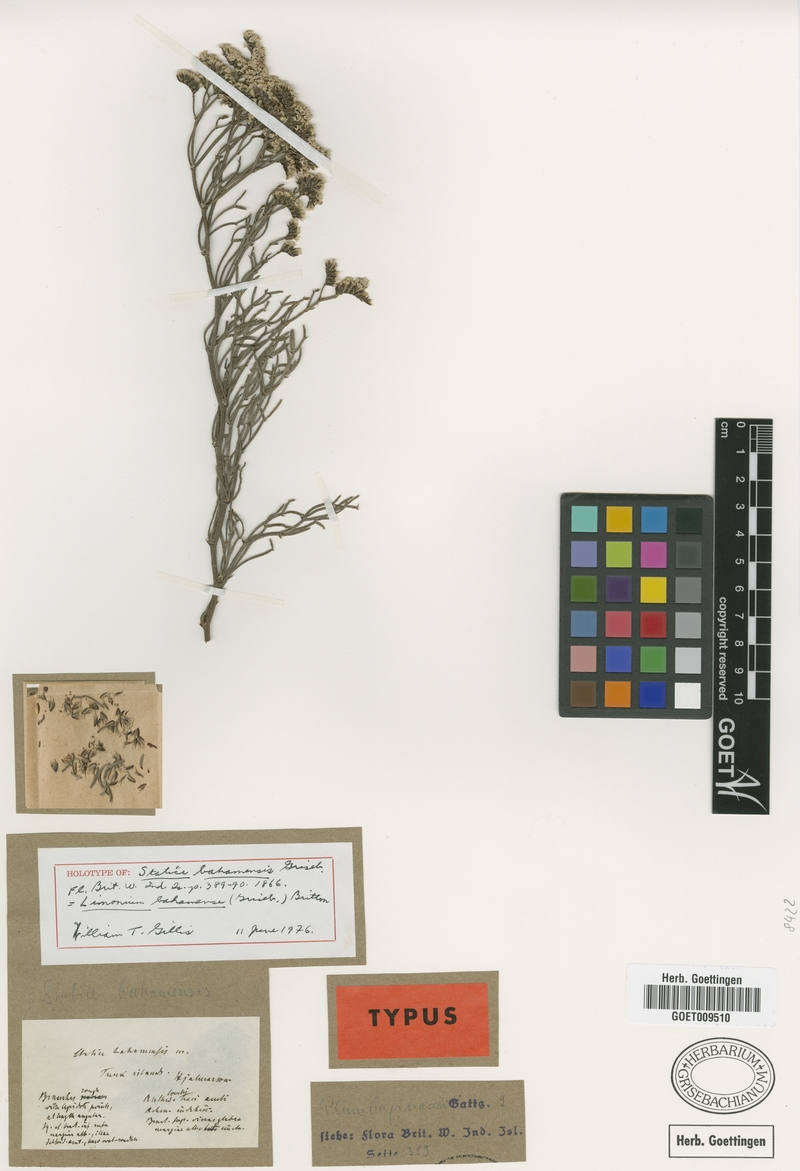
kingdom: Plantae
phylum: Tracheophyta
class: Magnoliopsida
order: Caryophyllales
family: Plumbaginaceae
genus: Limonium
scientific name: Limonium bahamense
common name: Heather
